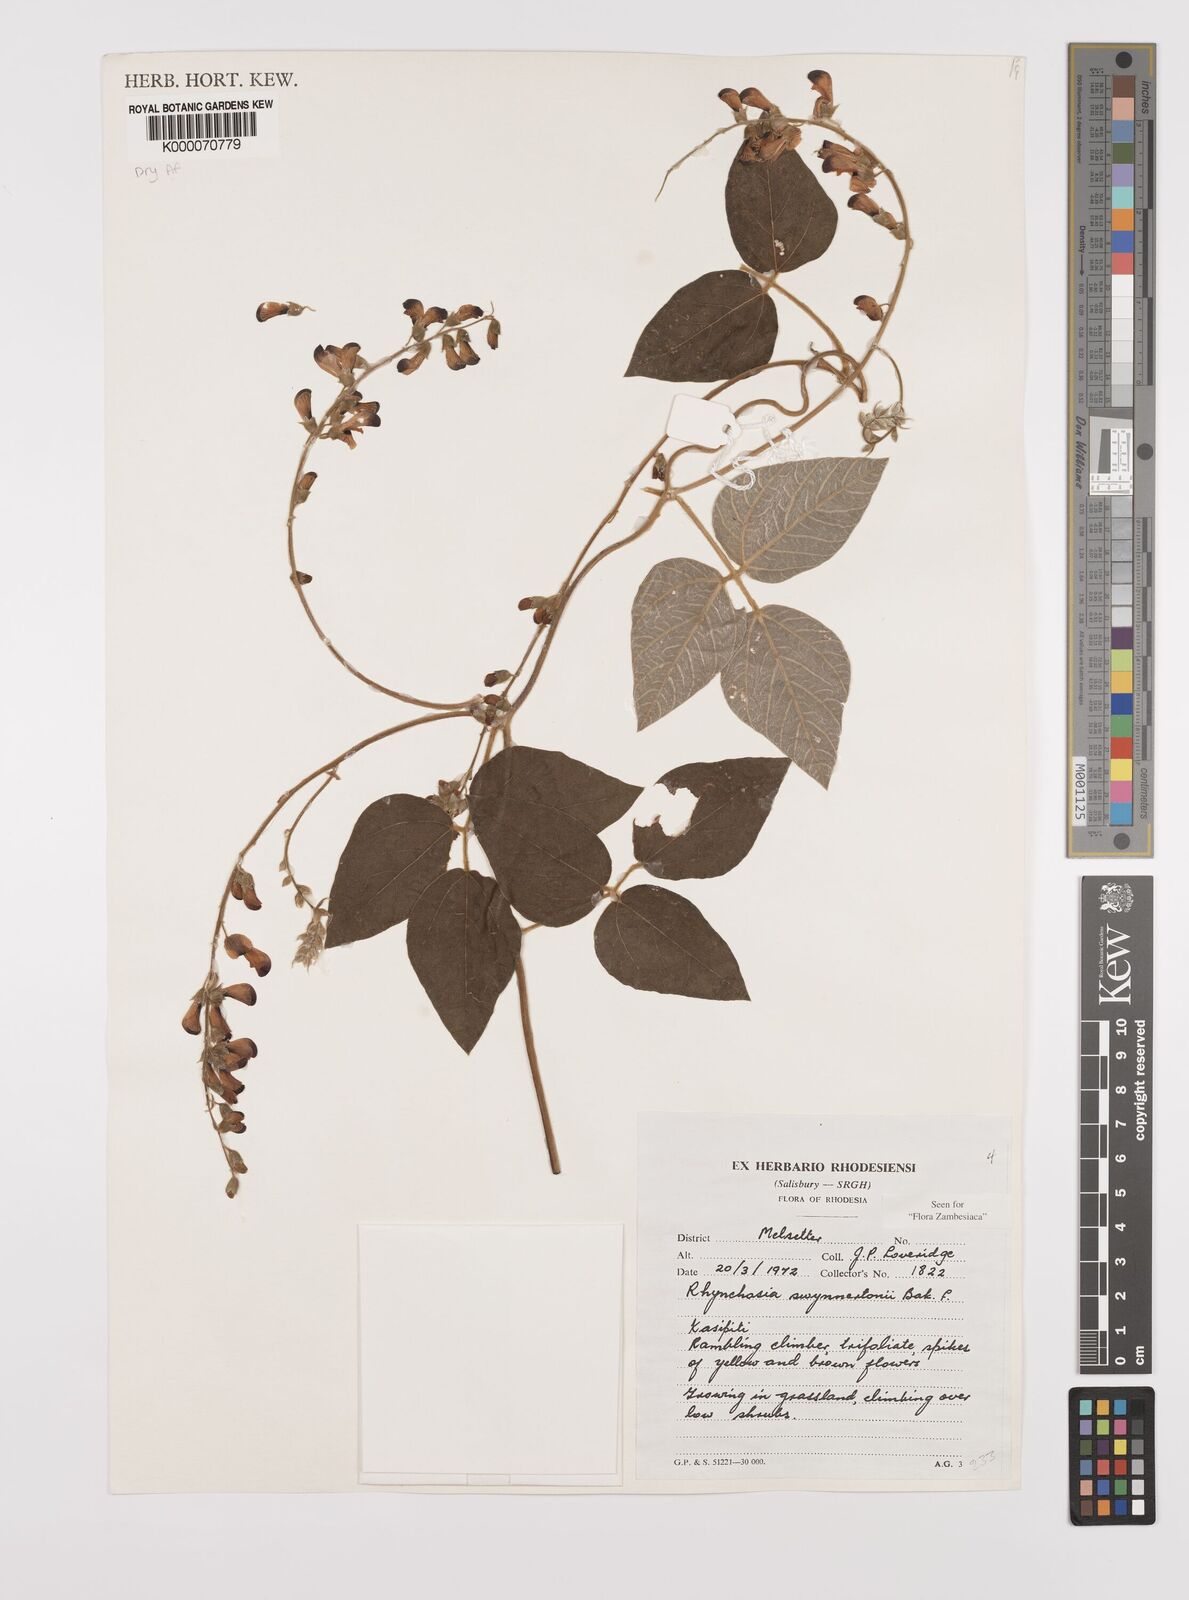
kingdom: Plantae
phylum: Tracheophyta
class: Magnoliopsida
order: Fabales
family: Fabaceae
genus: Rhynchosia
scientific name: Rhynchosia swynnertonii
